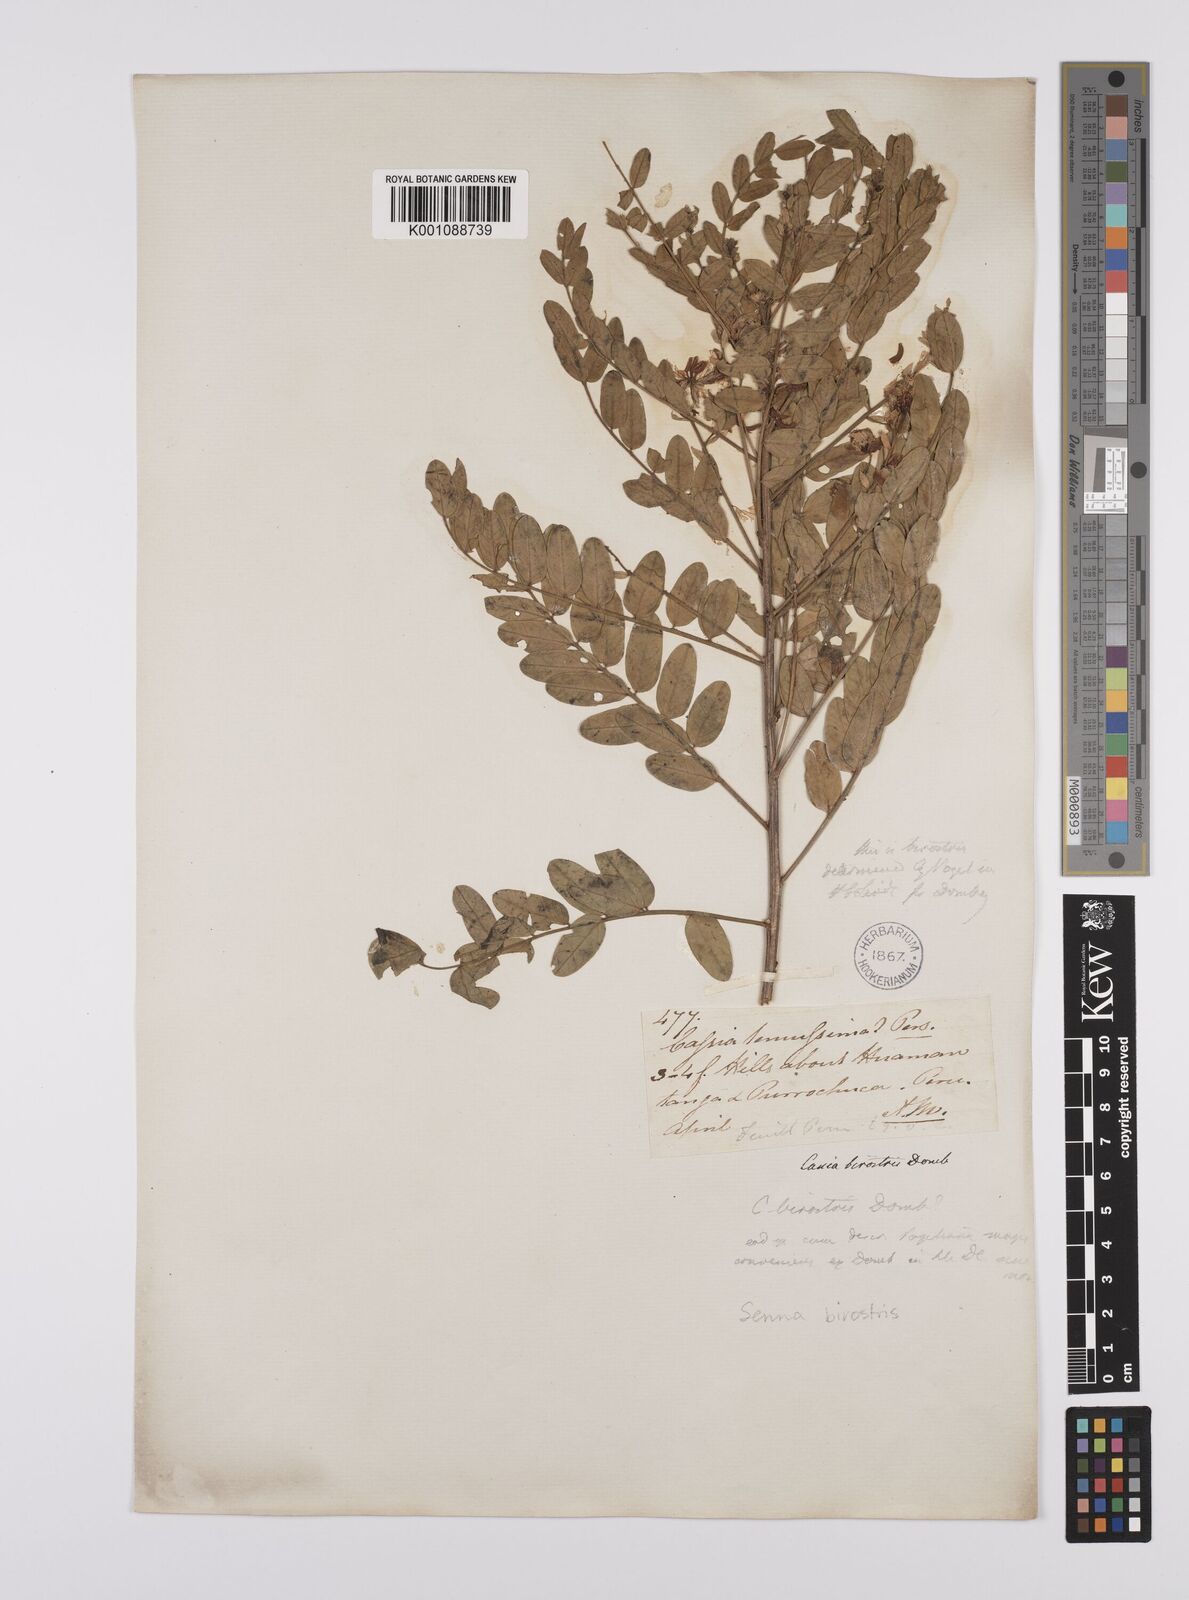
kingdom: Plantae
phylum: Tracheophyta
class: Magnoliopsida
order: Fabales
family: Fabaceae
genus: Senna
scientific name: Senna birostris
